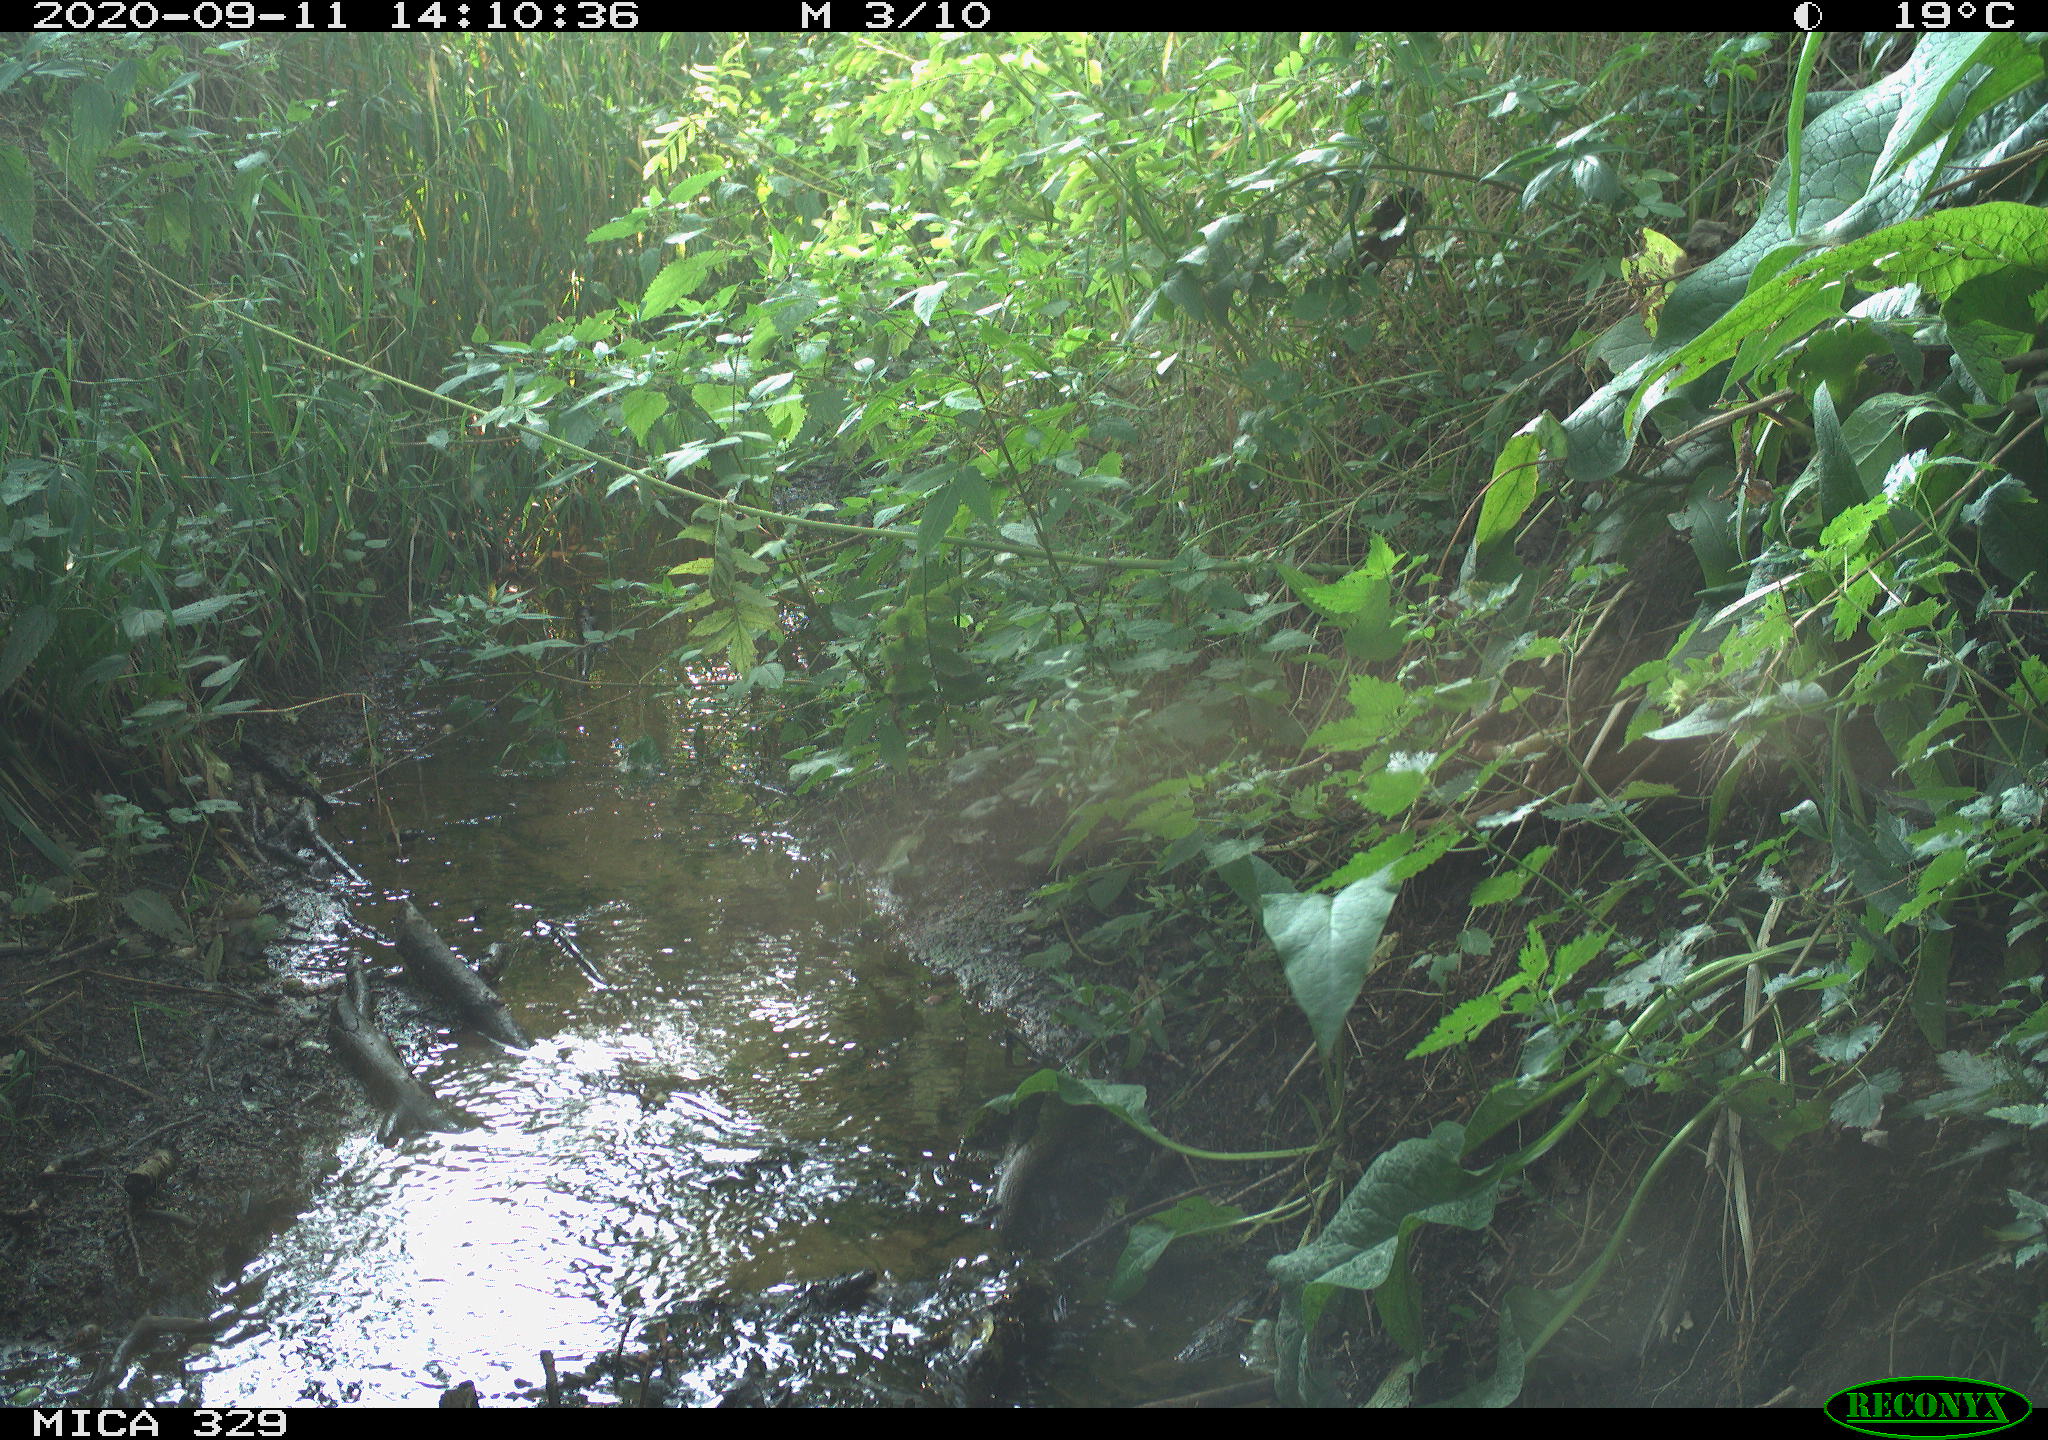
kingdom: Animalia
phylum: Chordata
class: Aves
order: Columbiformes
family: Columbidae
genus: Columba
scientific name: Columba palumbus
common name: Common wood pigeon
